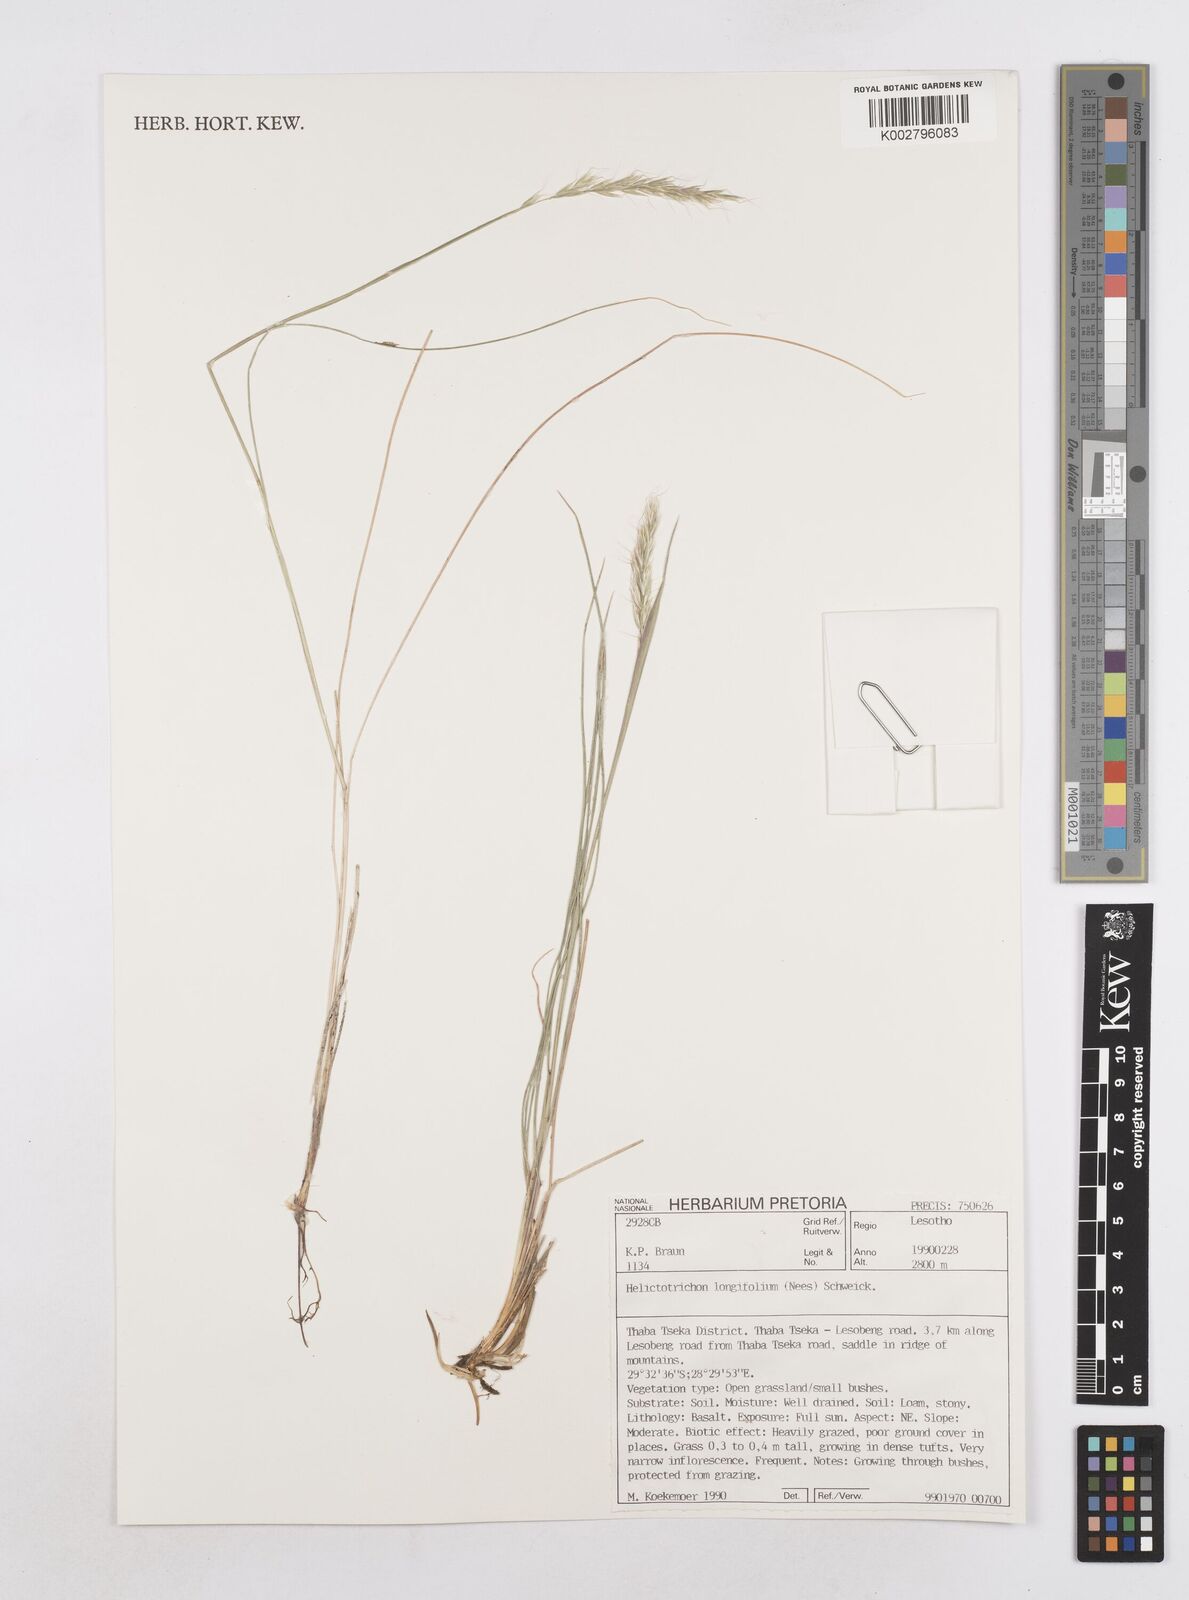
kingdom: Plantae
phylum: Tracheophyta
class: Liliopsida
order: Poales
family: Poaceae
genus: Trisetopsis
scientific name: Trisetopsis longifolia
